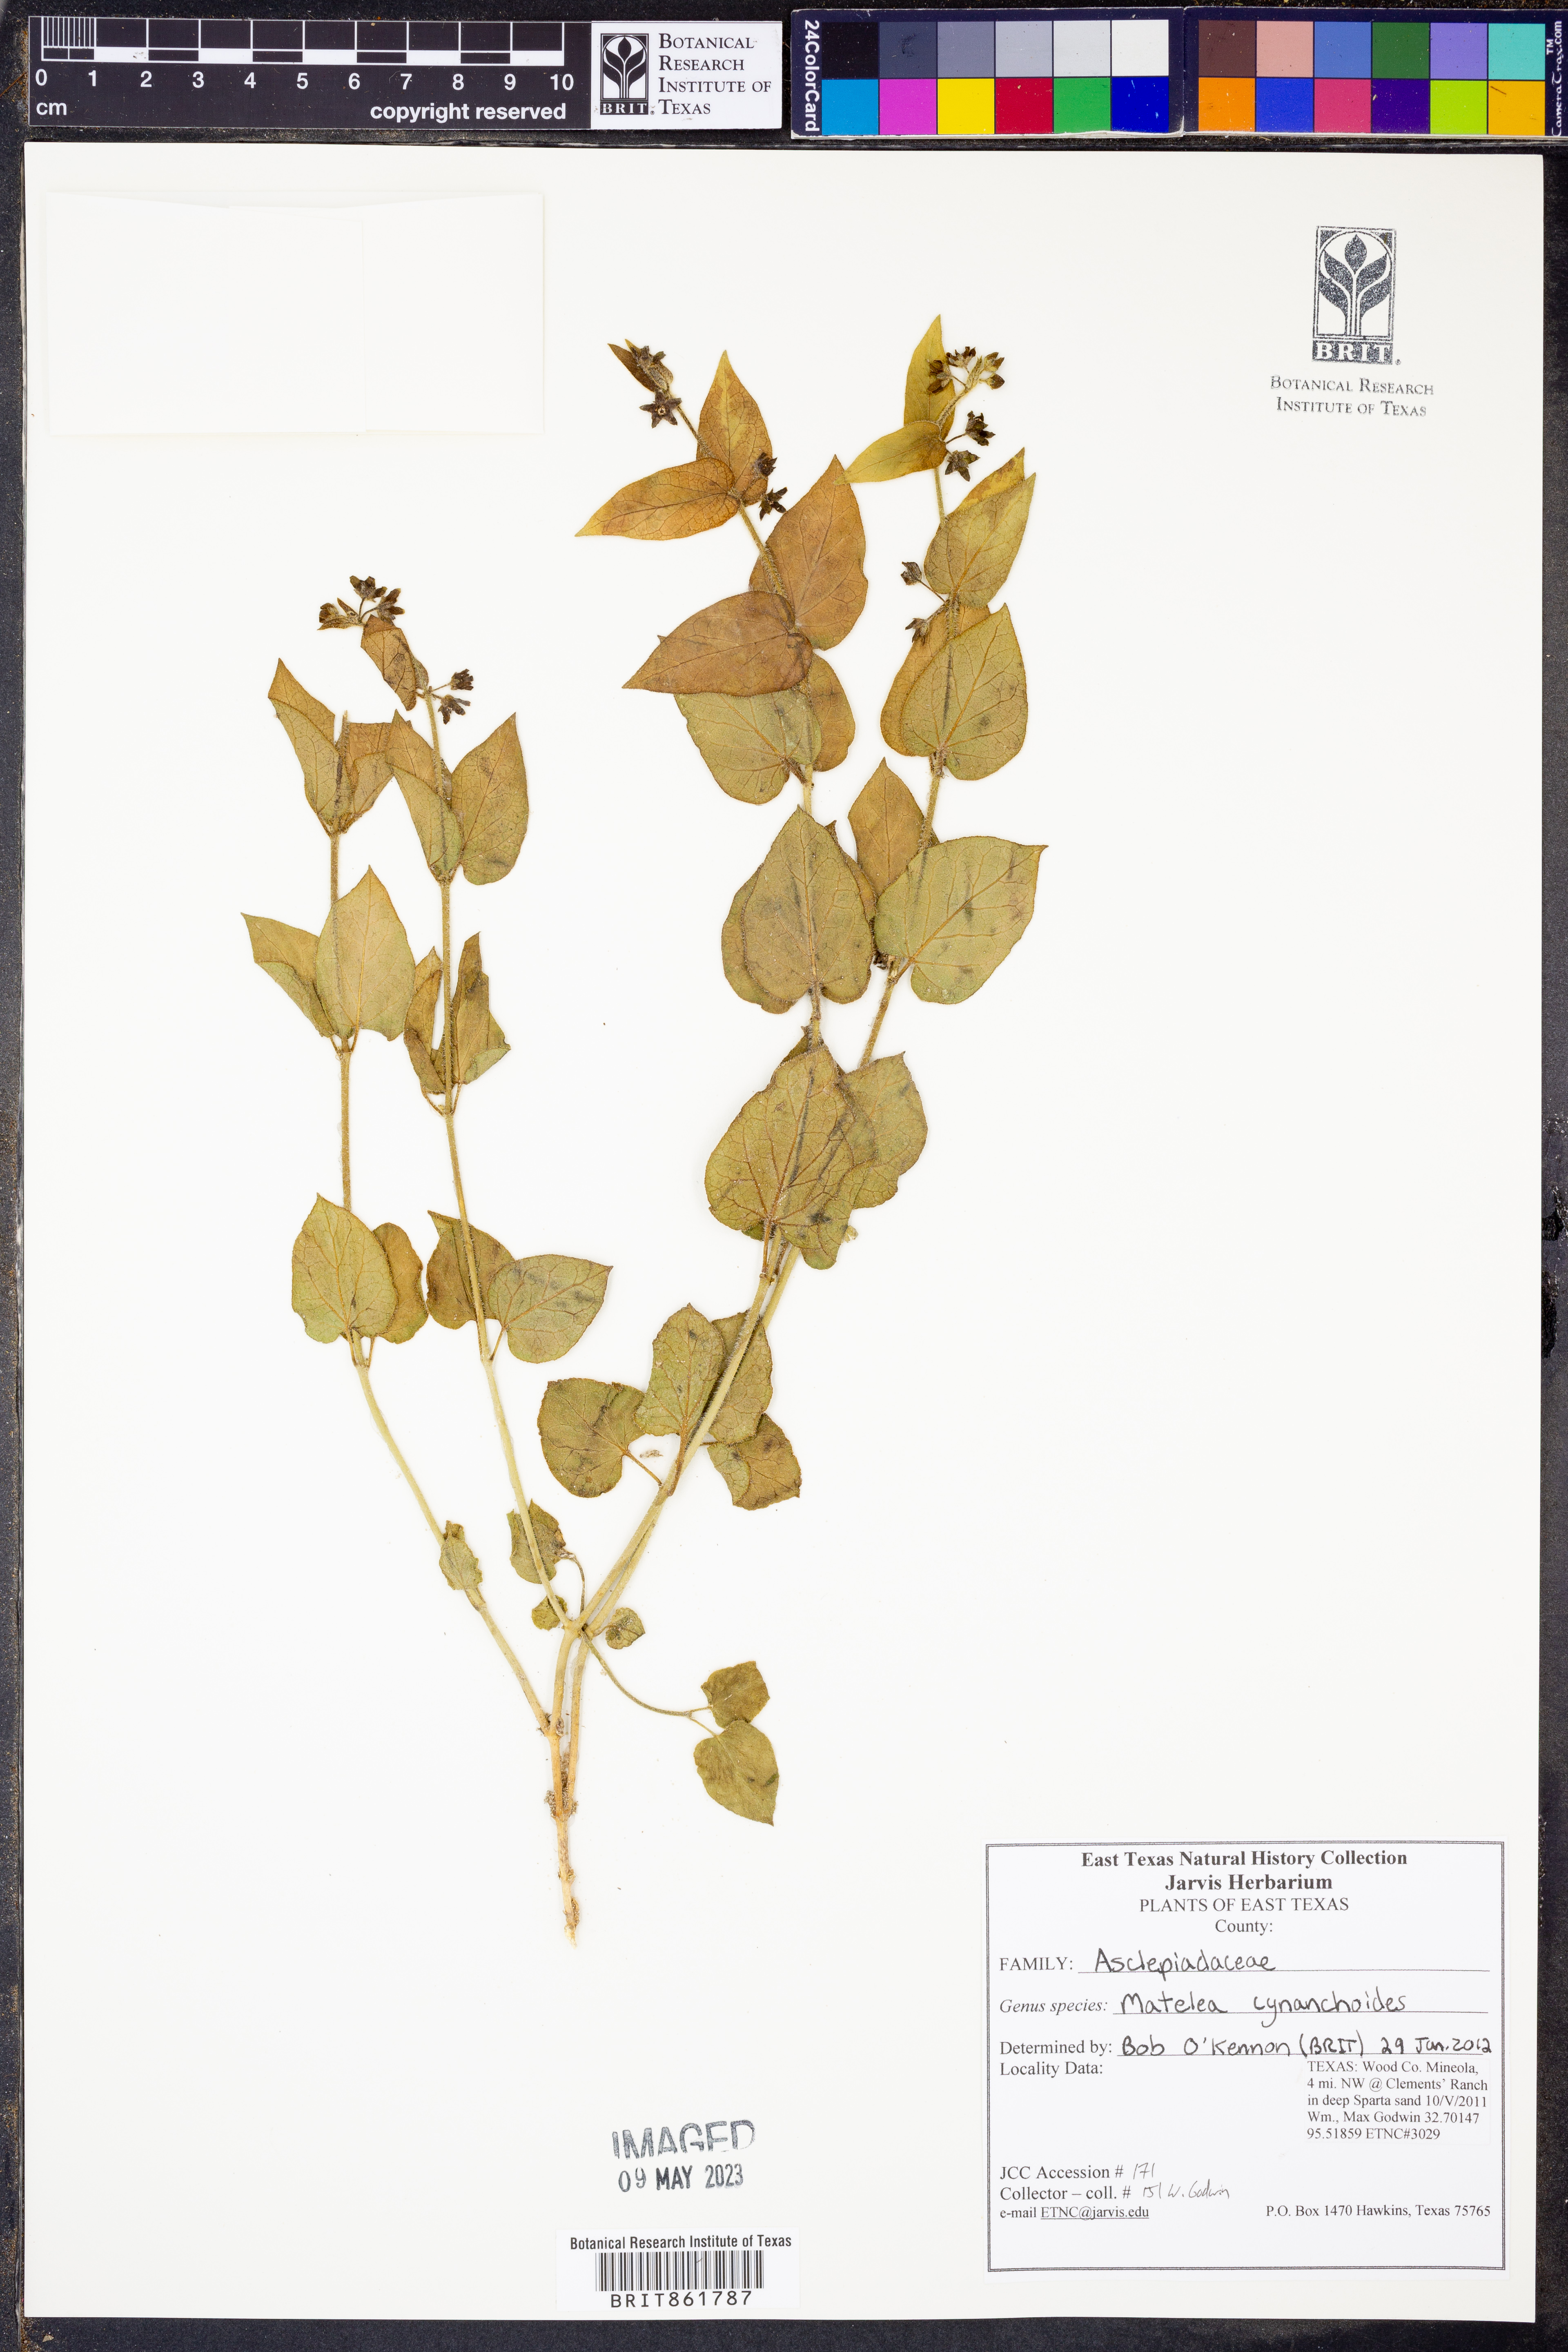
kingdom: Plantae
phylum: Tracheophyta
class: Magnoliopsida
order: Gentianales
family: Apocynaceae
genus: Matelea
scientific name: Matelea cynanchoides
